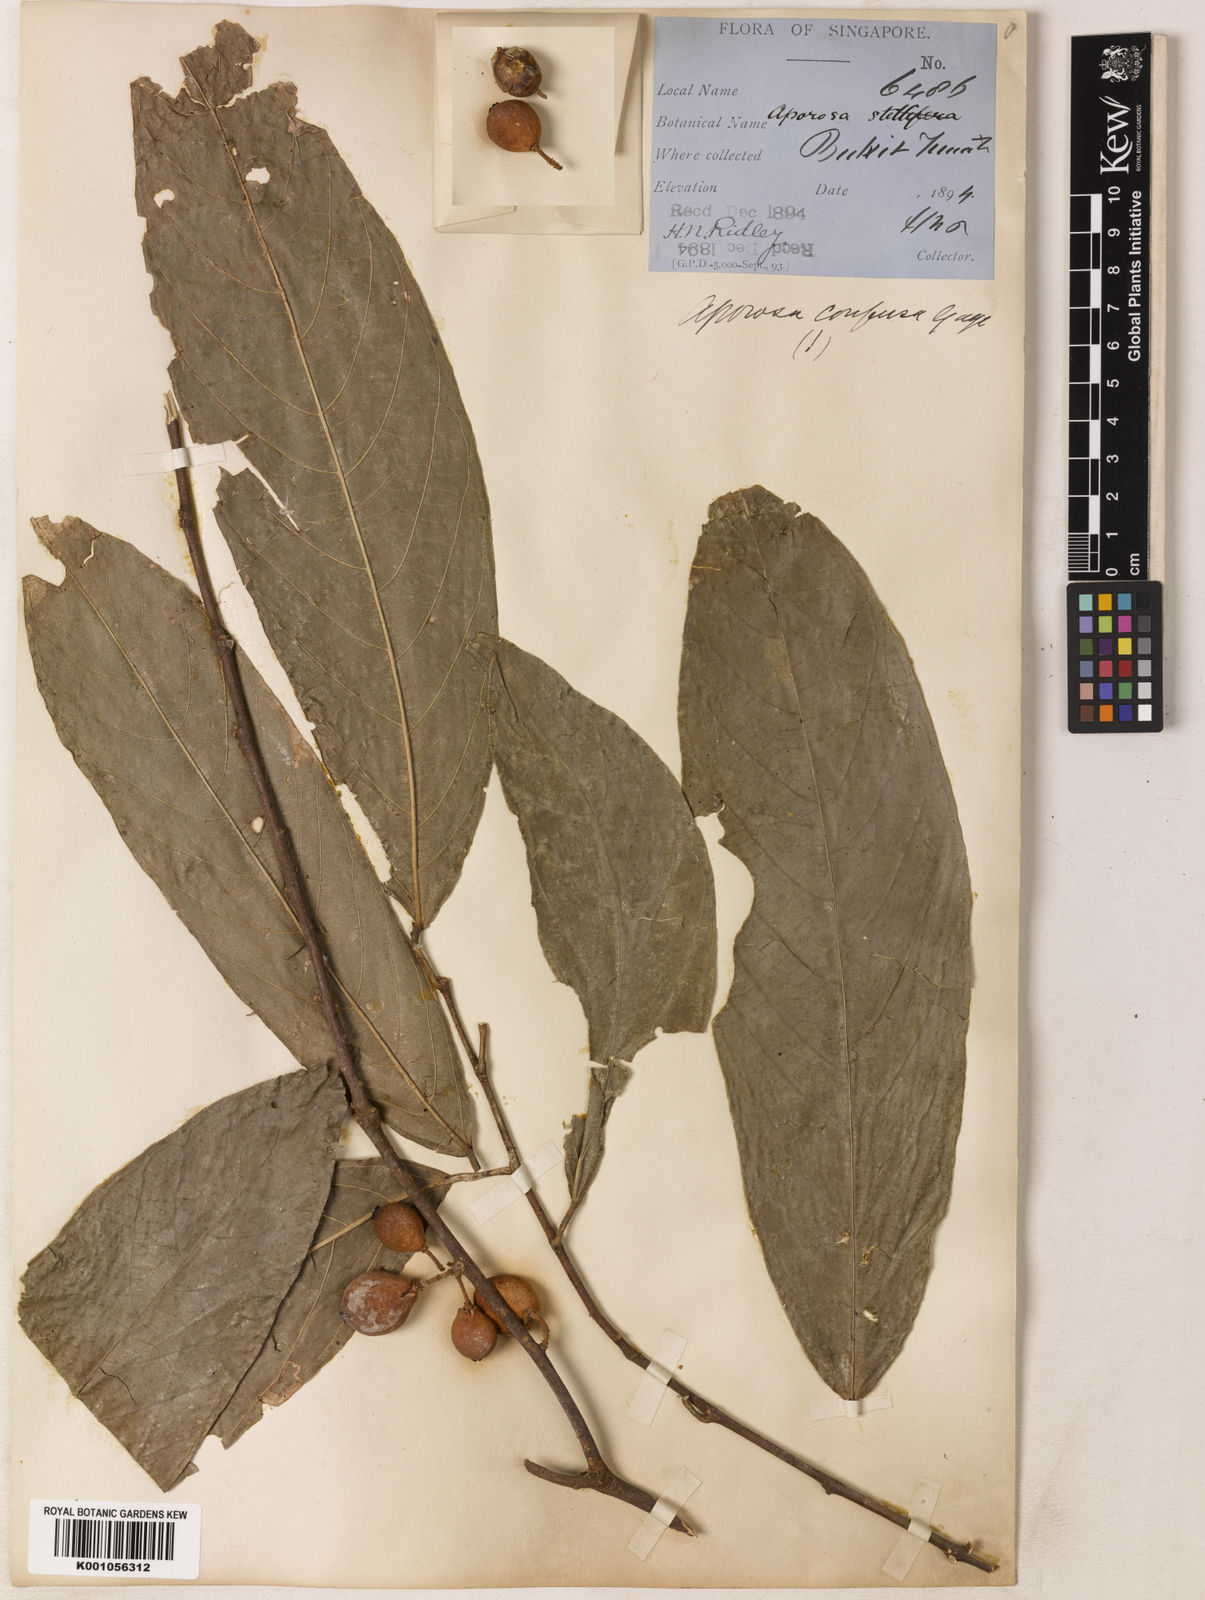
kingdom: Plantae
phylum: Tracheophyta
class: Magnoliopsida
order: Malpighiales
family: Phyllanthaceae
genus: Aporosa
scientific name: Aporosa confusa
